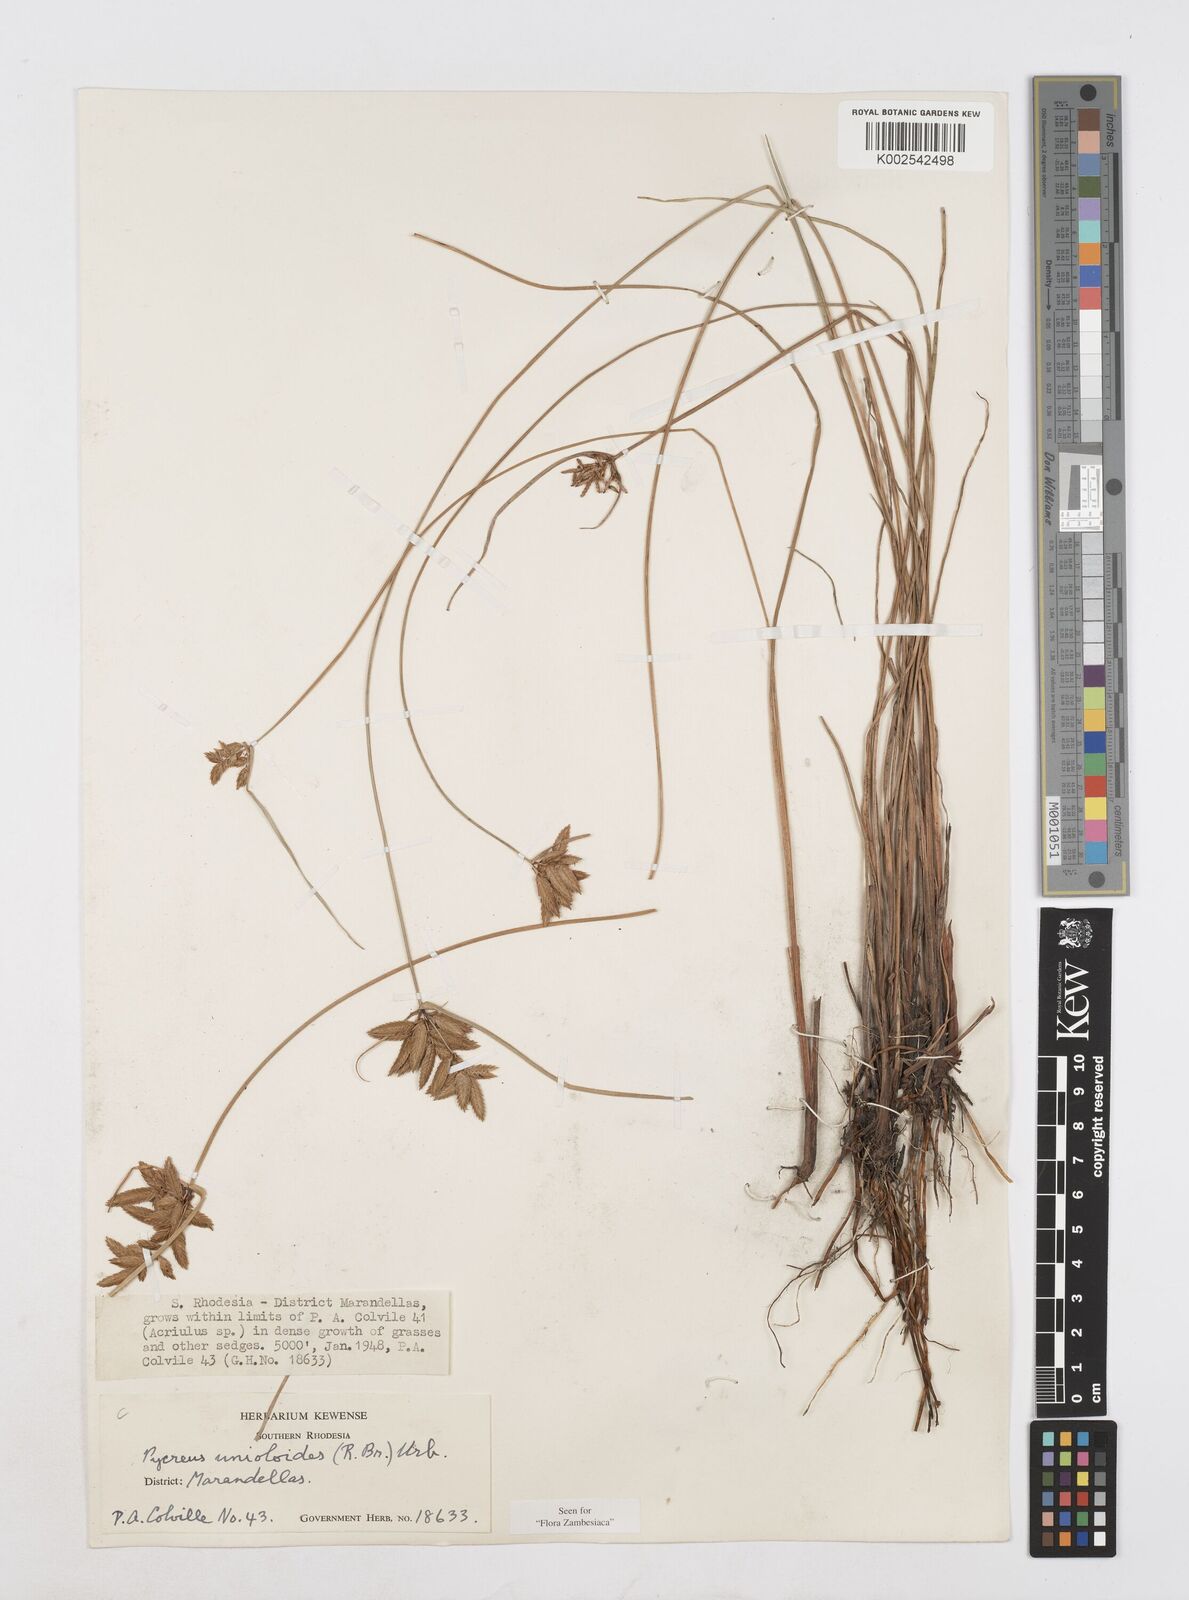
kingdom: Plantae
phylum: Tracheophyta
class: Liliopsida
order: Poales
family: Cyperaceae
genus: Cyperus
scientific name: Cyperus unioloides
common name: Uniola flatsedge
